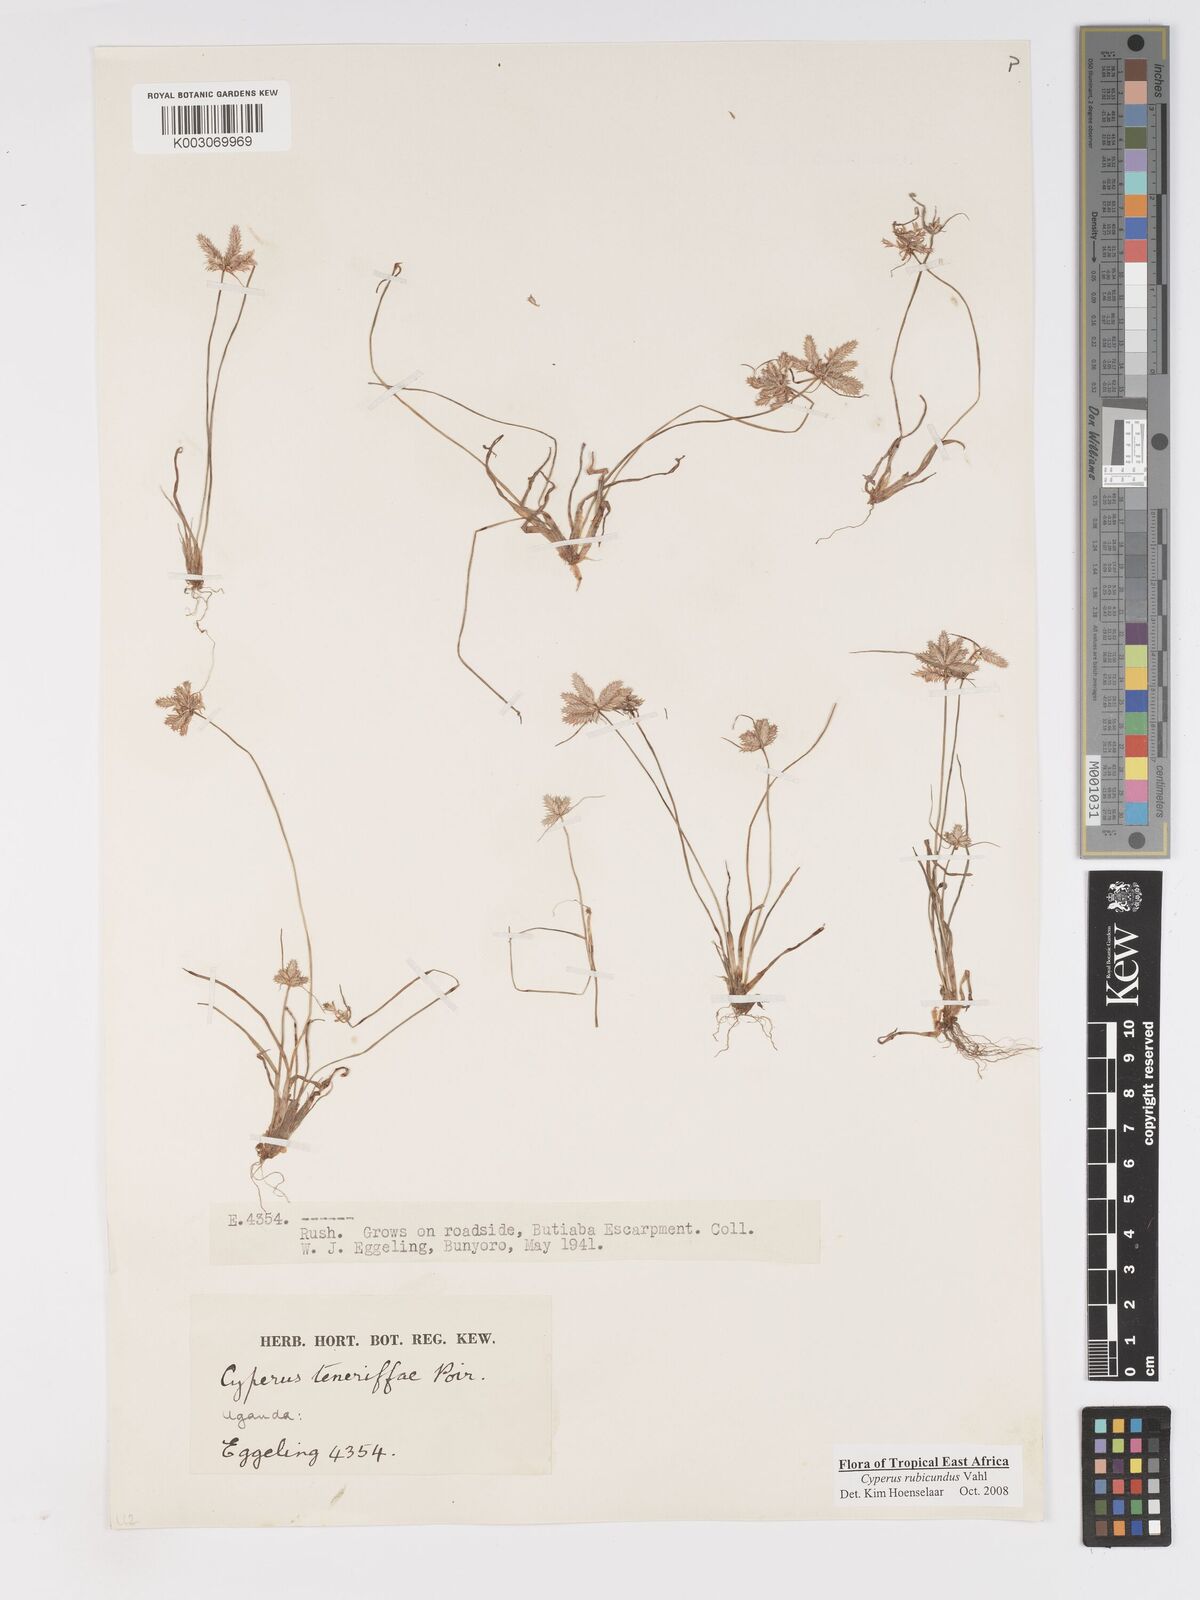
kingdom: Plantae
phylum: Tracheophyta
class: Liliopsida
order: Poales
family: Cyperaceae
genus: Cyperus
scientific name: Cyperus rubicundus
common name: Coco-grass
